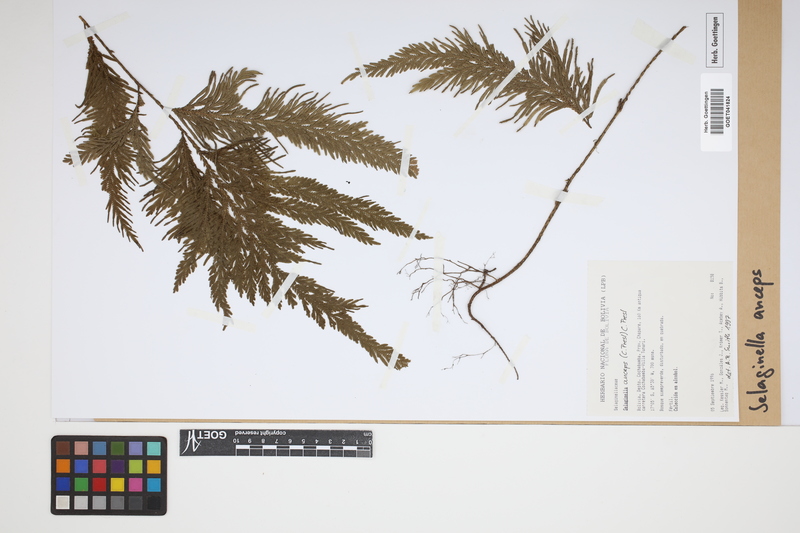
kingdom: Plantae
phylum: Tracheophyta
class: Lycopodiopsida
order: Selaginellales
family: Selaginellaceae
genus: Selaginella
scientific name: Selaginella anceps
